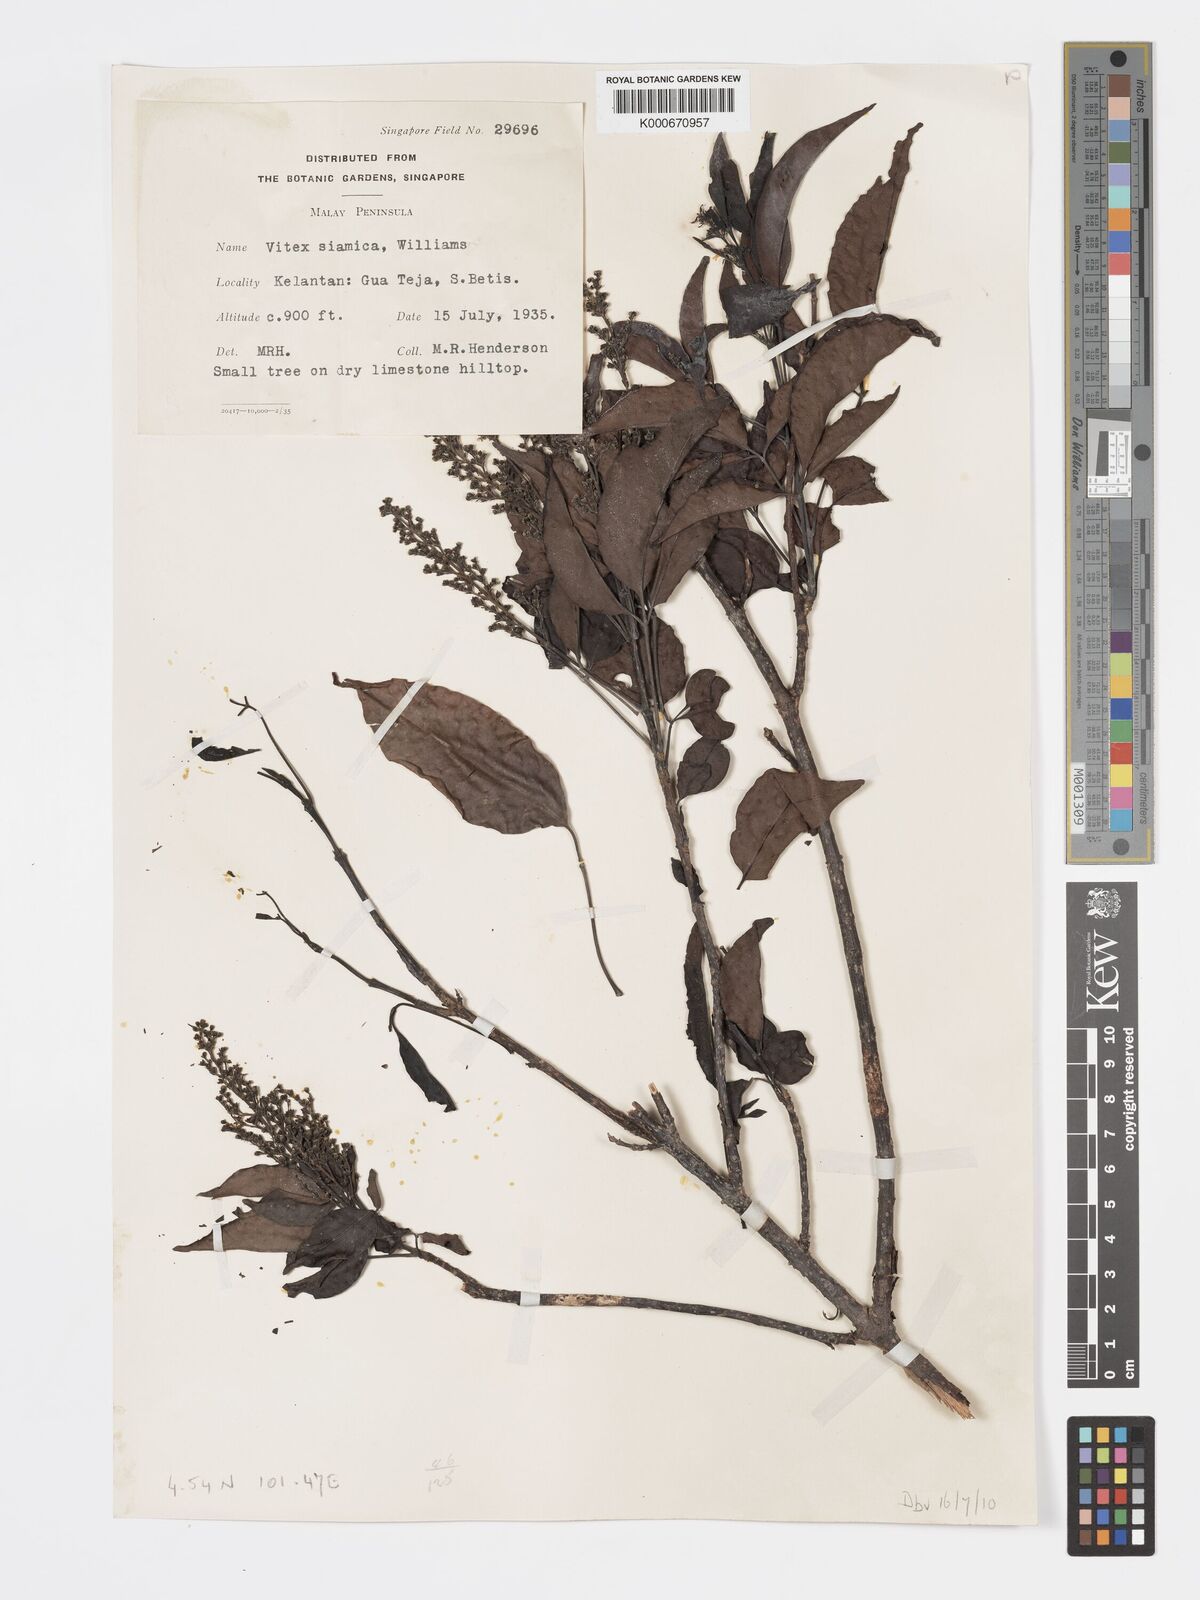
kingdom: Plantae
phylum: Tracheophyta
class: Magnoliopsida
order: Lamiales
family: Lamiaceae
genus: Vitex
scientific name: Vitex siamica
